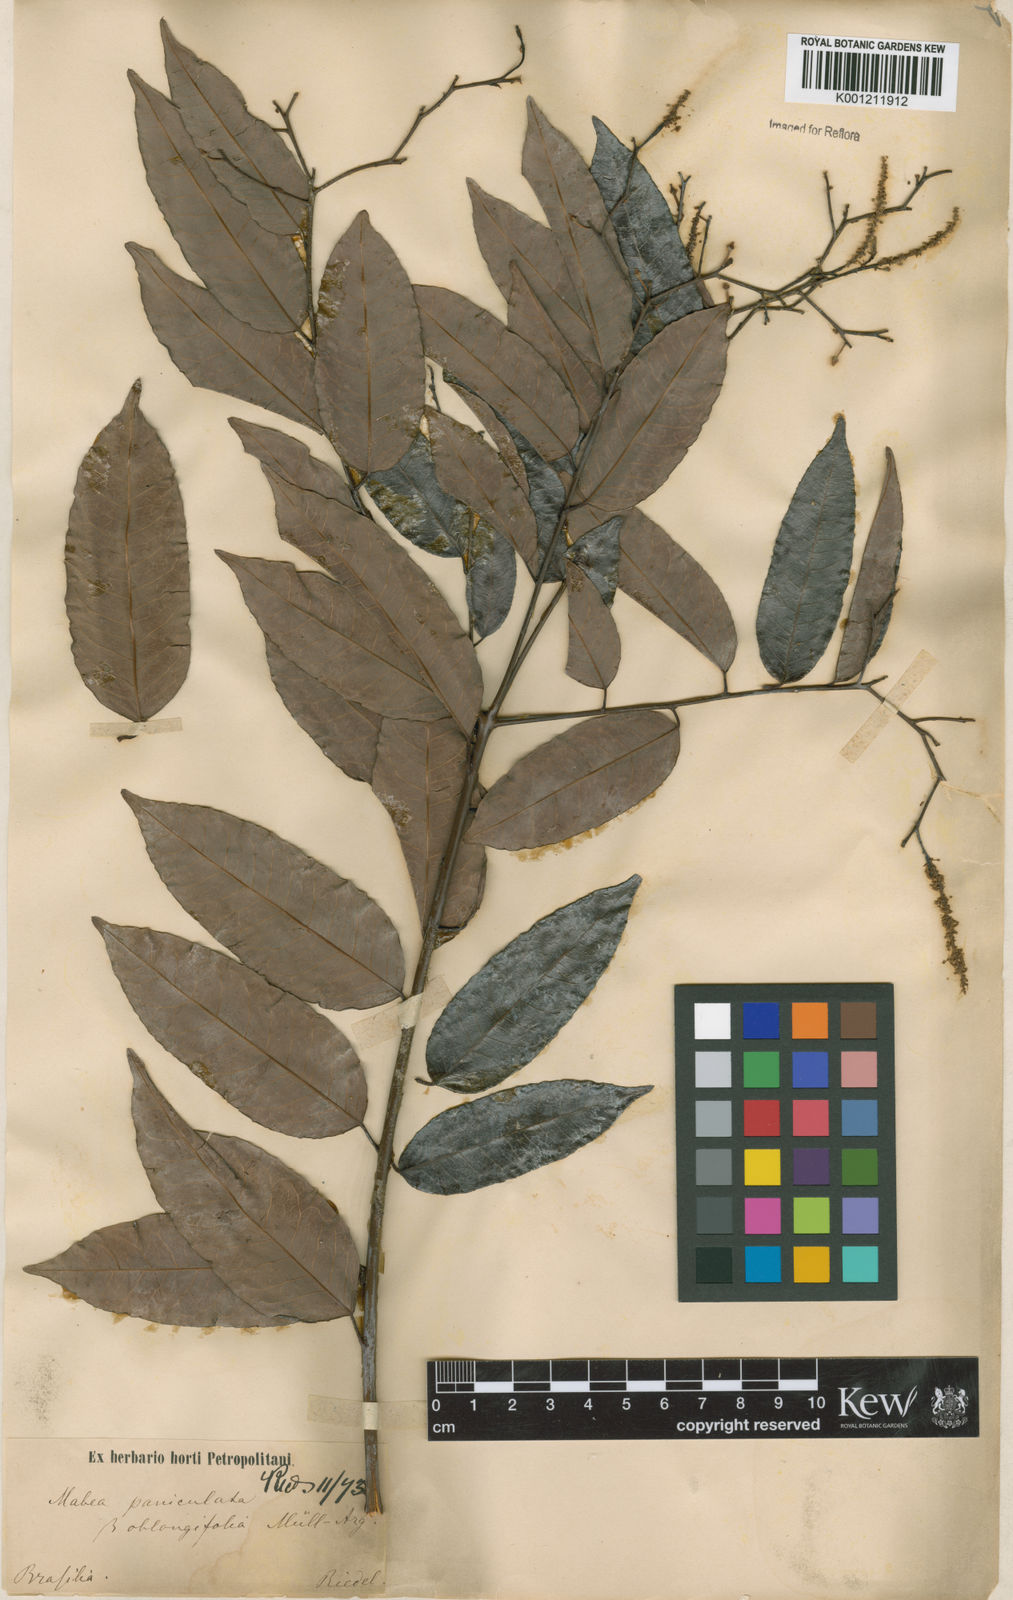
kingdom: Plantae
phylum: Tracheophyta
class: Magnoliopsida
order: Malpighiales
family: Euphorbiaceae
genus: Mabea
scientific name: Mabea paniculata
